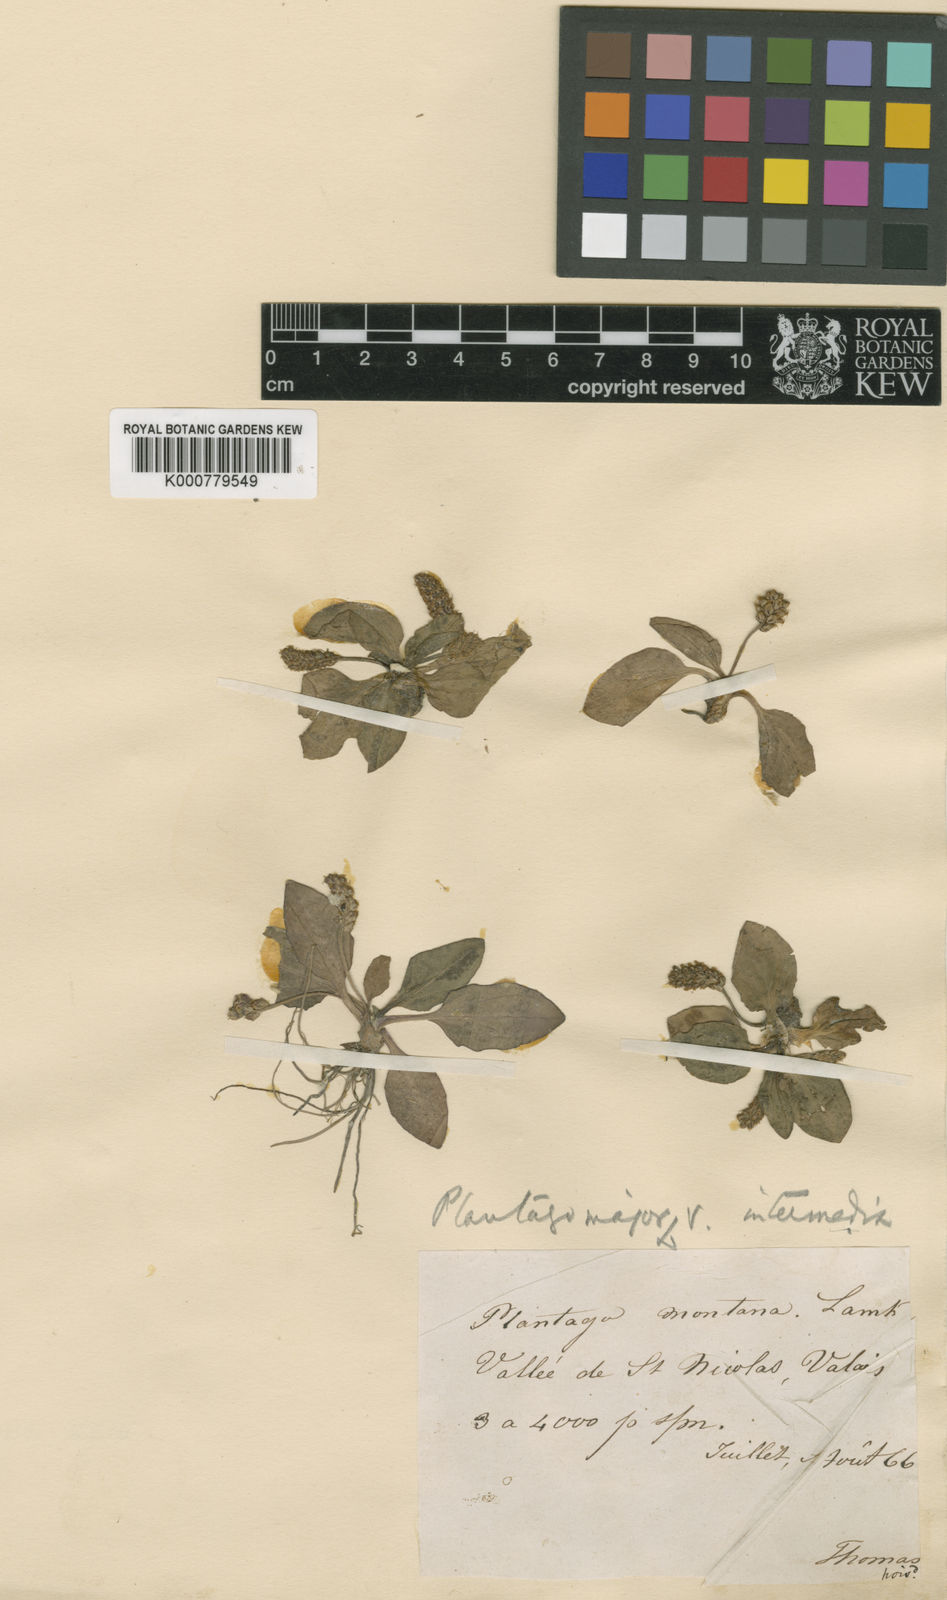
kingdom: Plantae
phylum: Tracheophyta
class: Magnoliopsida
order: Lamiales
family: Plantaginaceae
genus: Plantago
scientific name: Plantago major
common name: Common plantain
